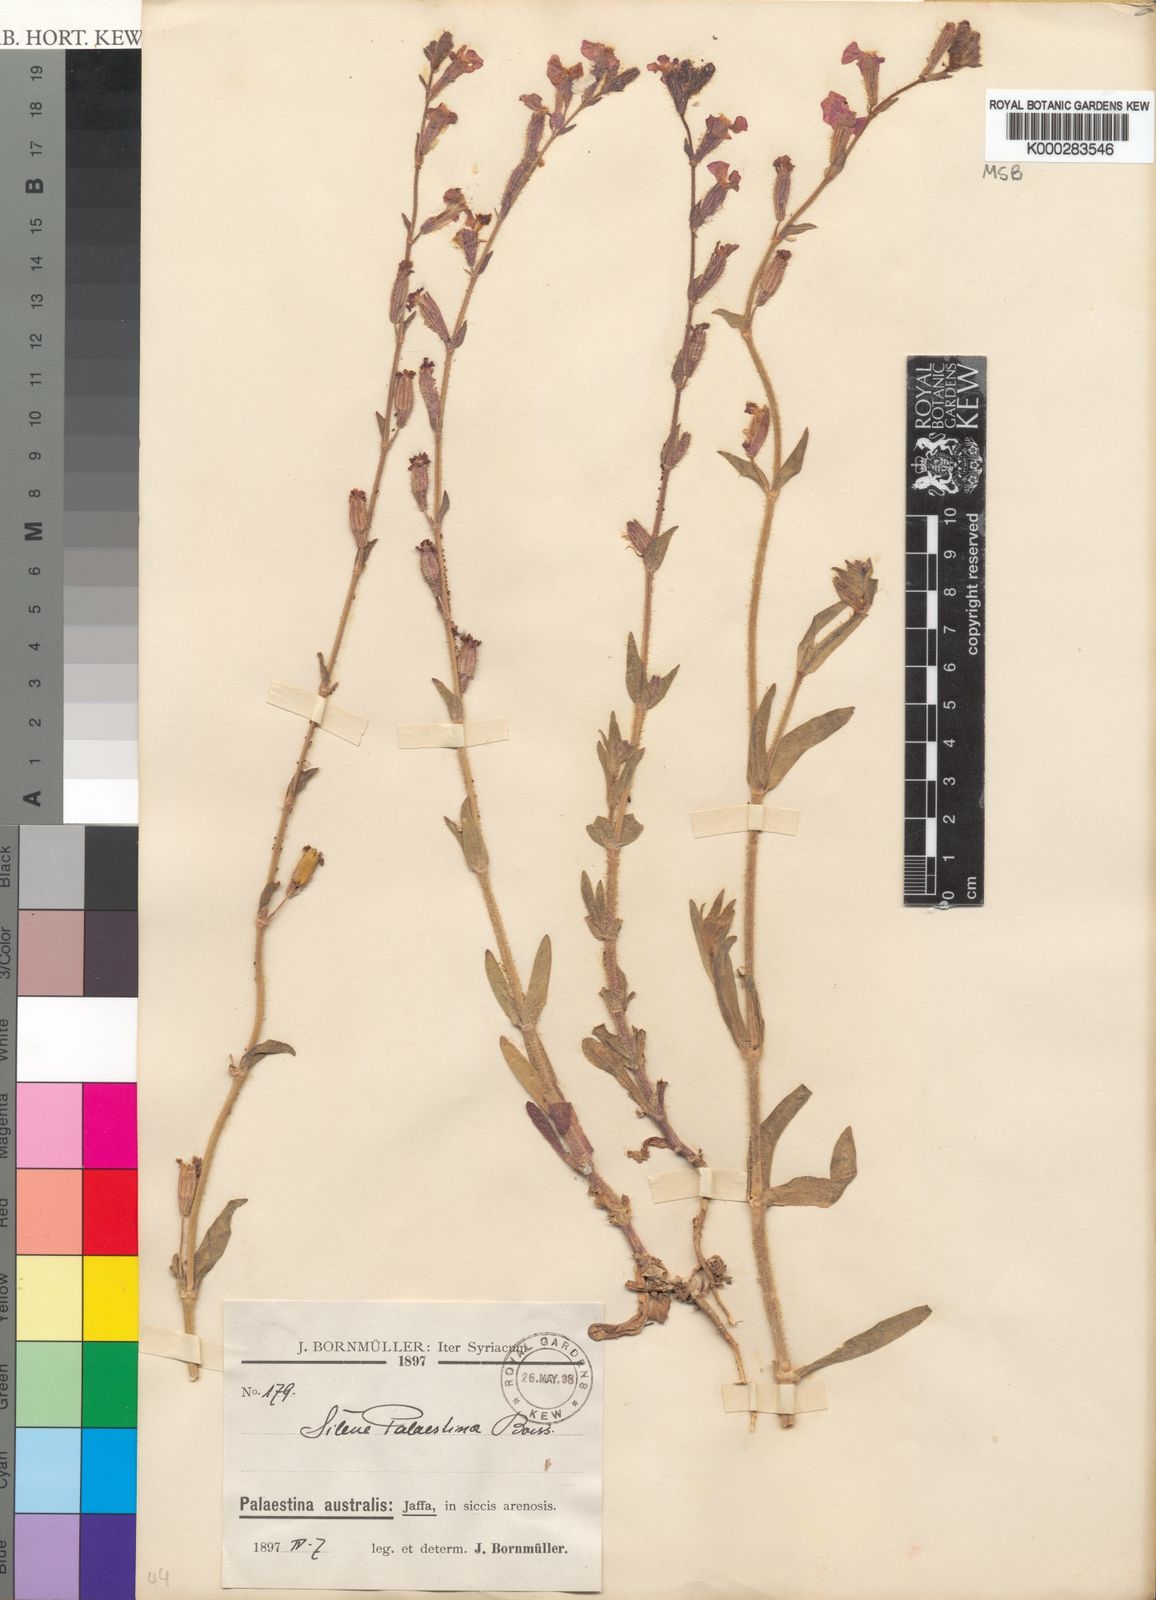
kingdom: Plantae
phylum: Tracheophyta
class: Magnoliopsida
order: Caryophyllales
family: Caryophyllaceae
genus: Silene
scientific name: Silene palaestina
